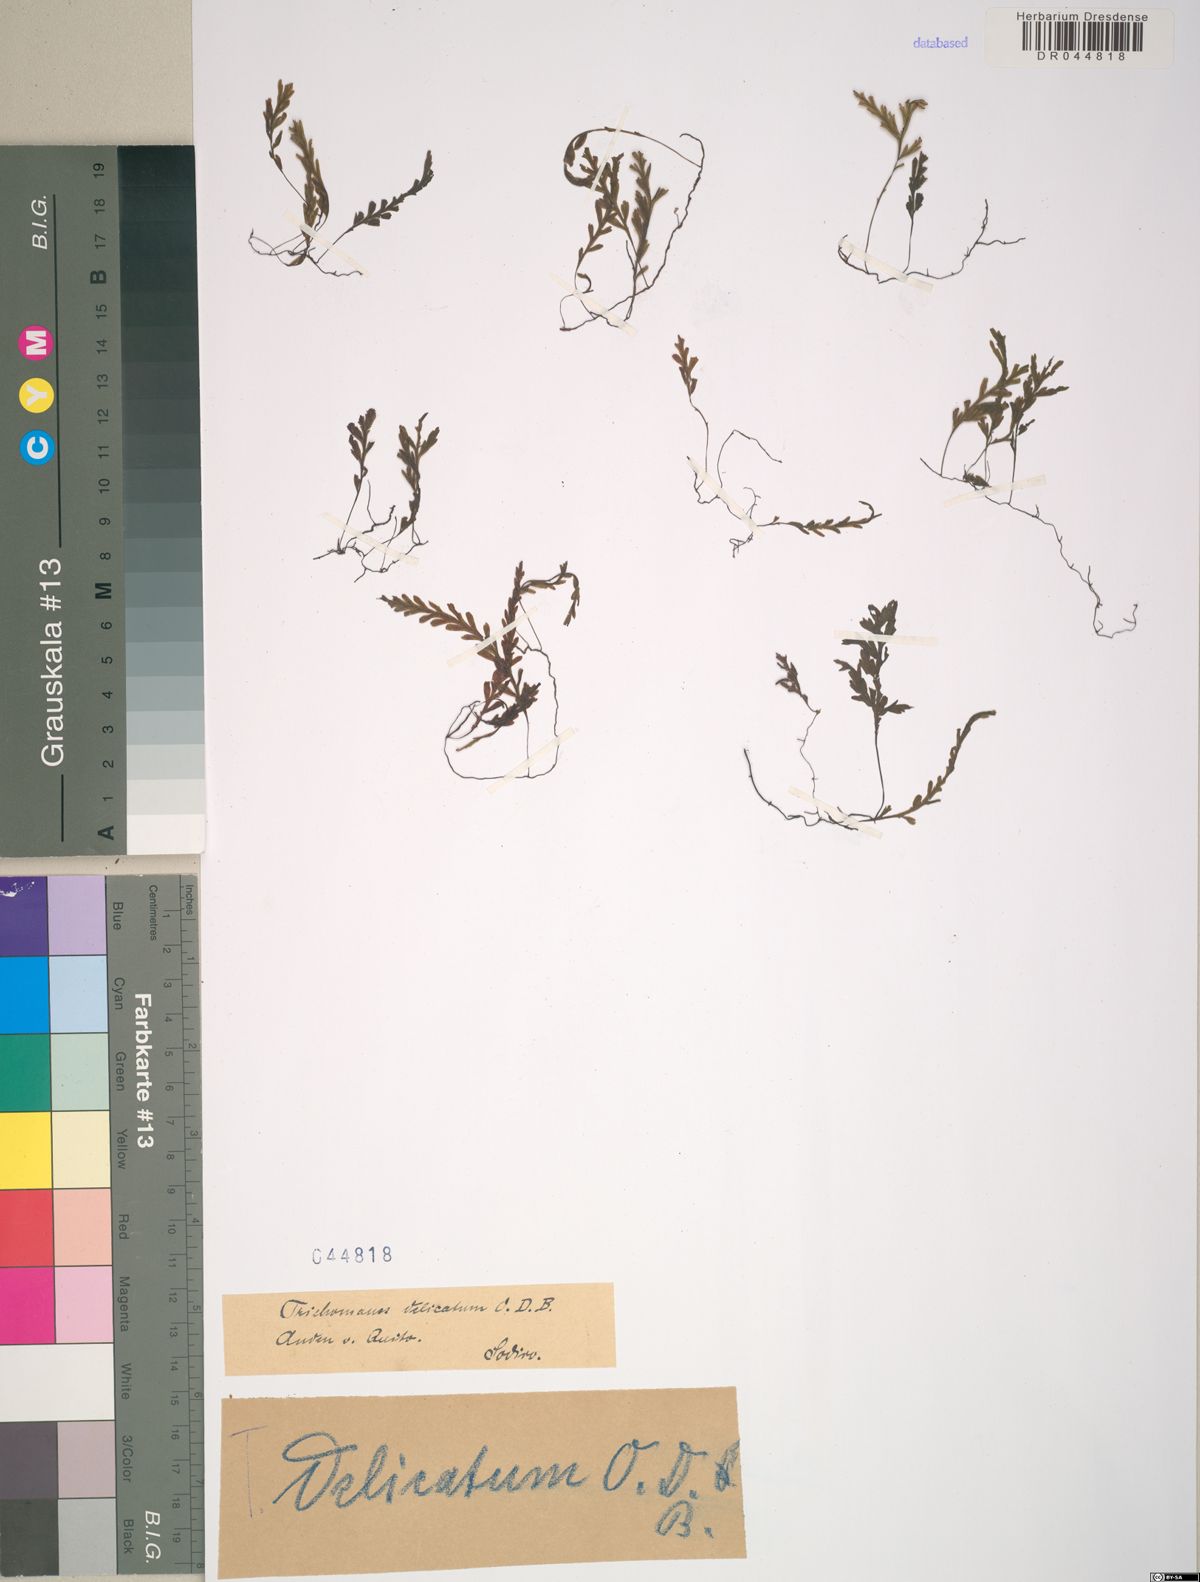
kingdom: Plantae
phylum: Tracheophyta
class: Polypodiopsida
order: Hymenophyllales
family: Hymenophyllaceae
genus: Trichomanes
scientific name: Trichomanes delicatum
